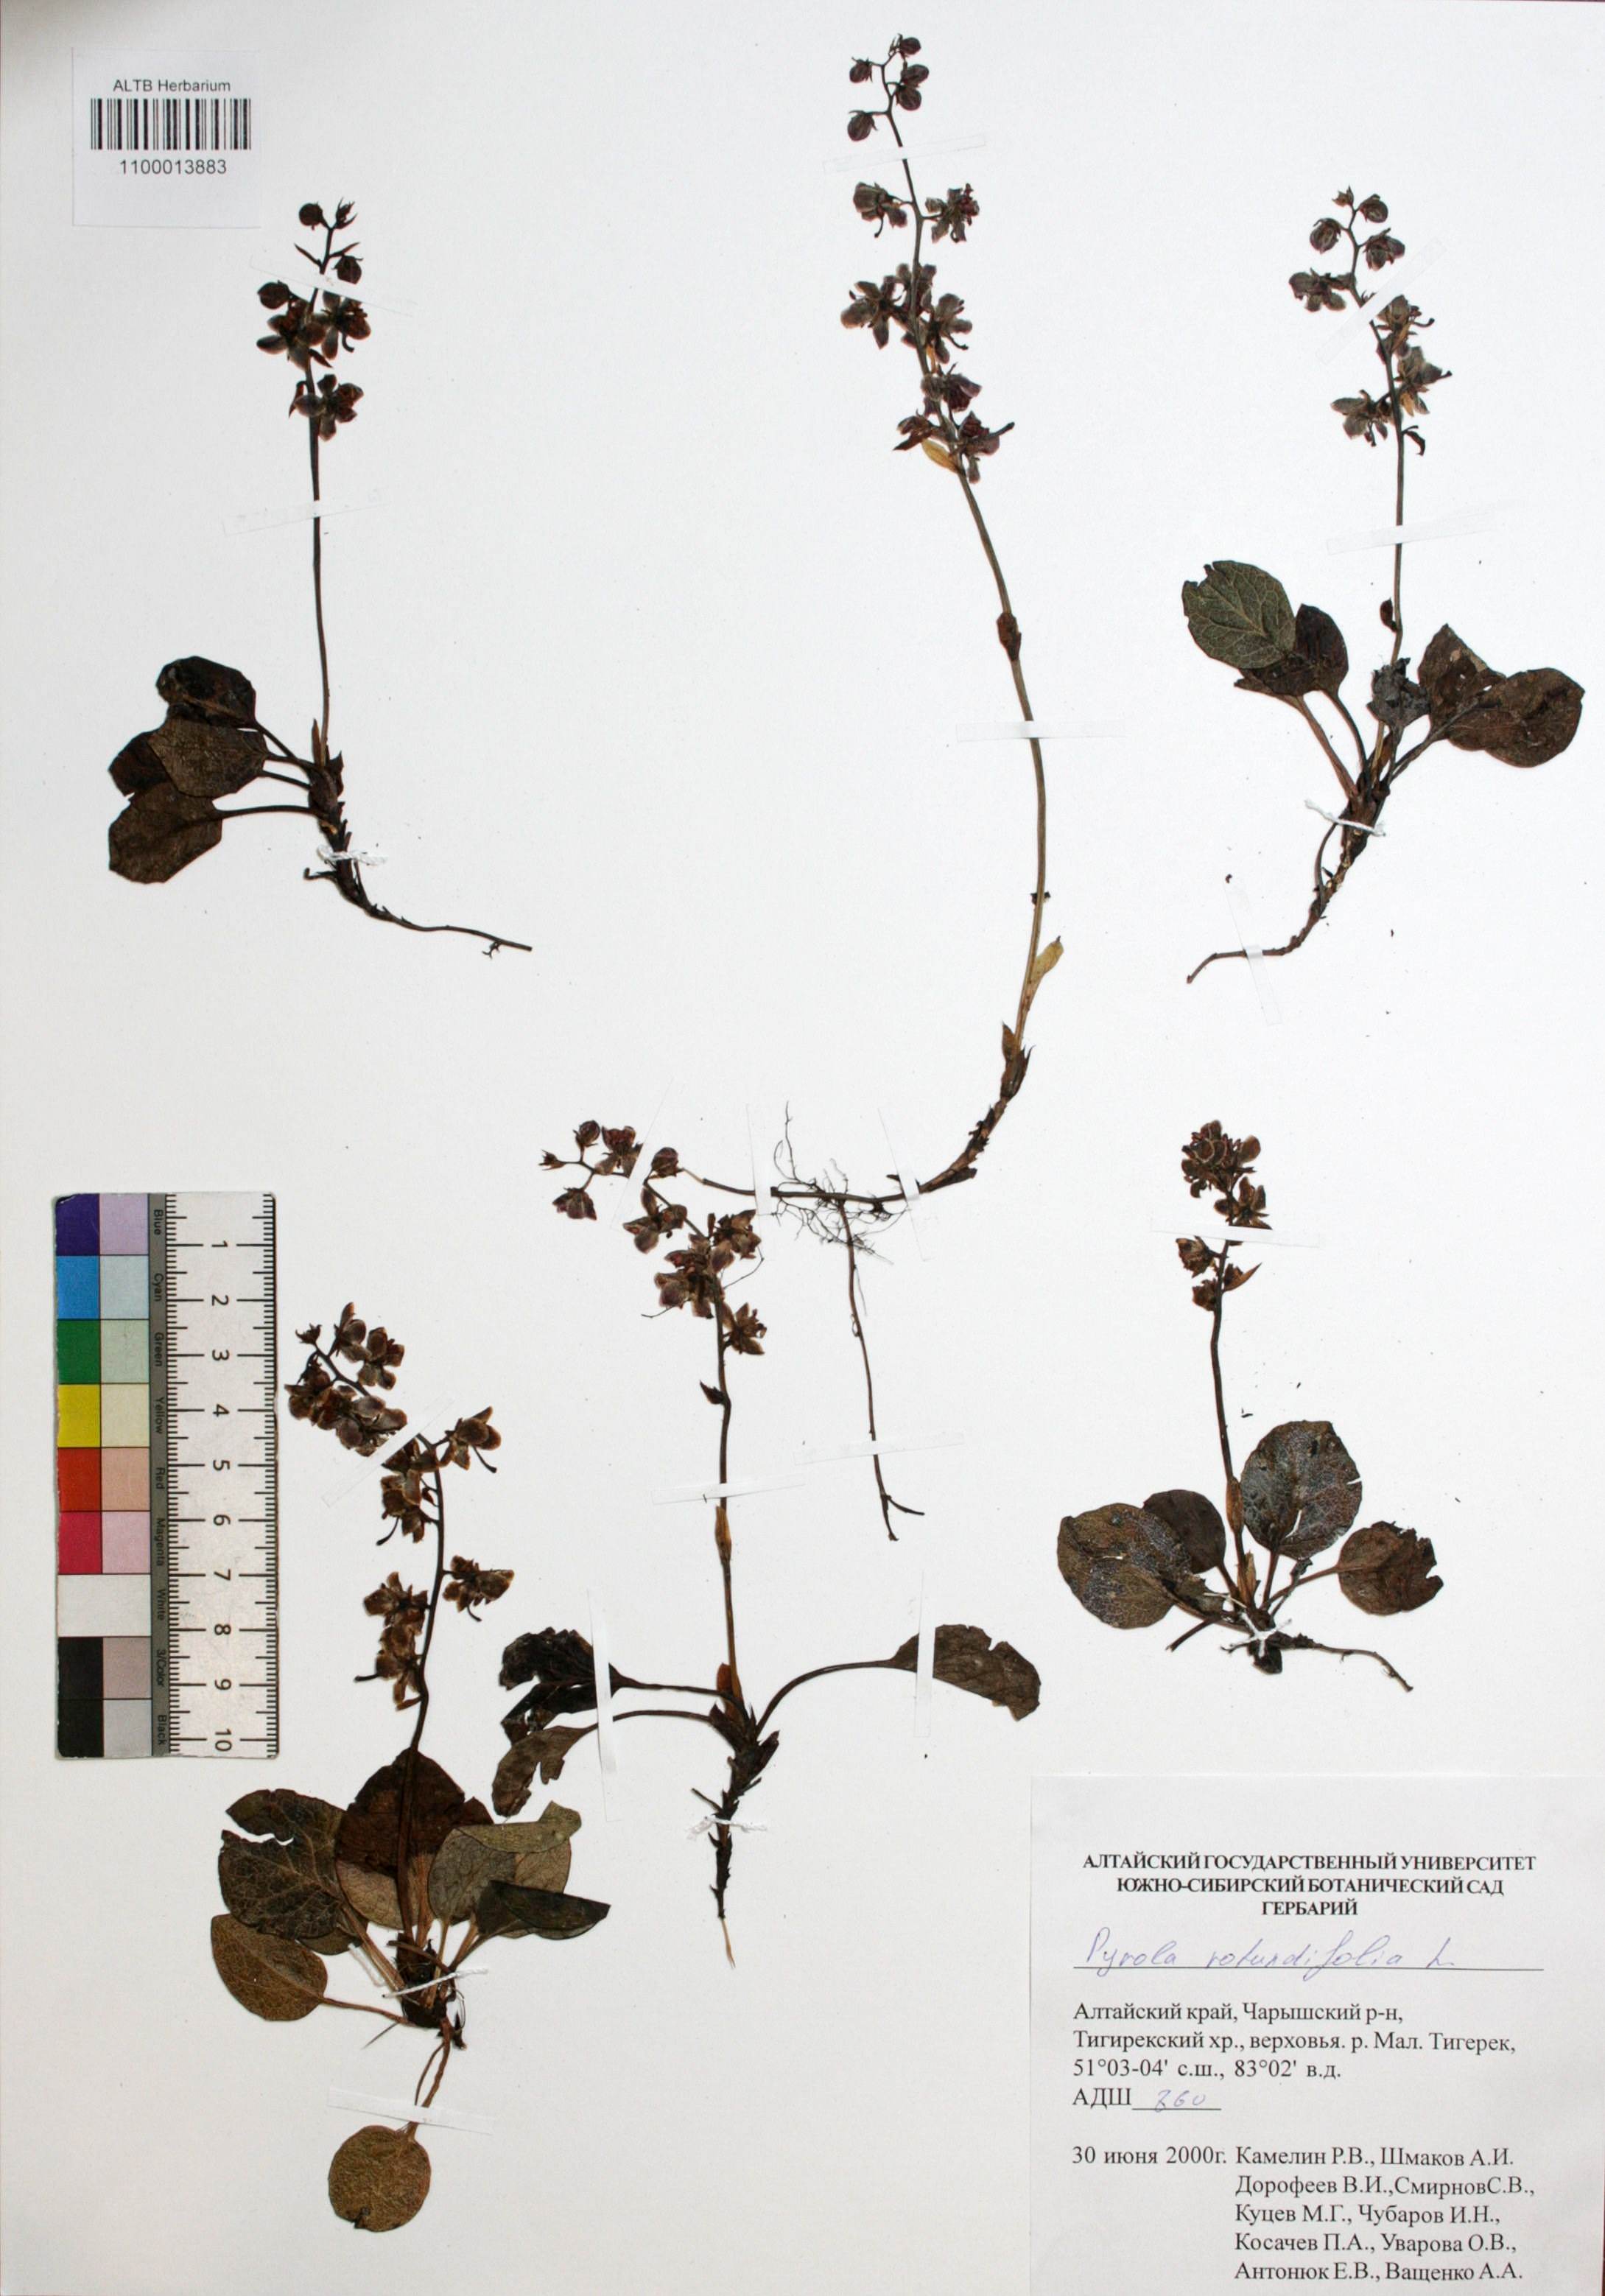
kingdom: Plantae
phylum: Tracheophyta
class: Magnoliopsida
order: Ericales
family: Ericaceae
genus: Pyrola
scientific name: Pyrola rotundifolia
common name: Round-leaved wintergreen
